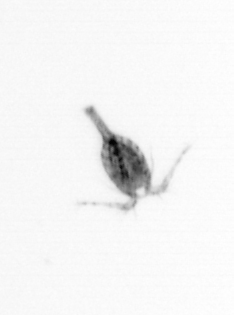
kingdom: Animalia
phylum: Arthropoda
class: Copepoda
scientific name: Copepoda
